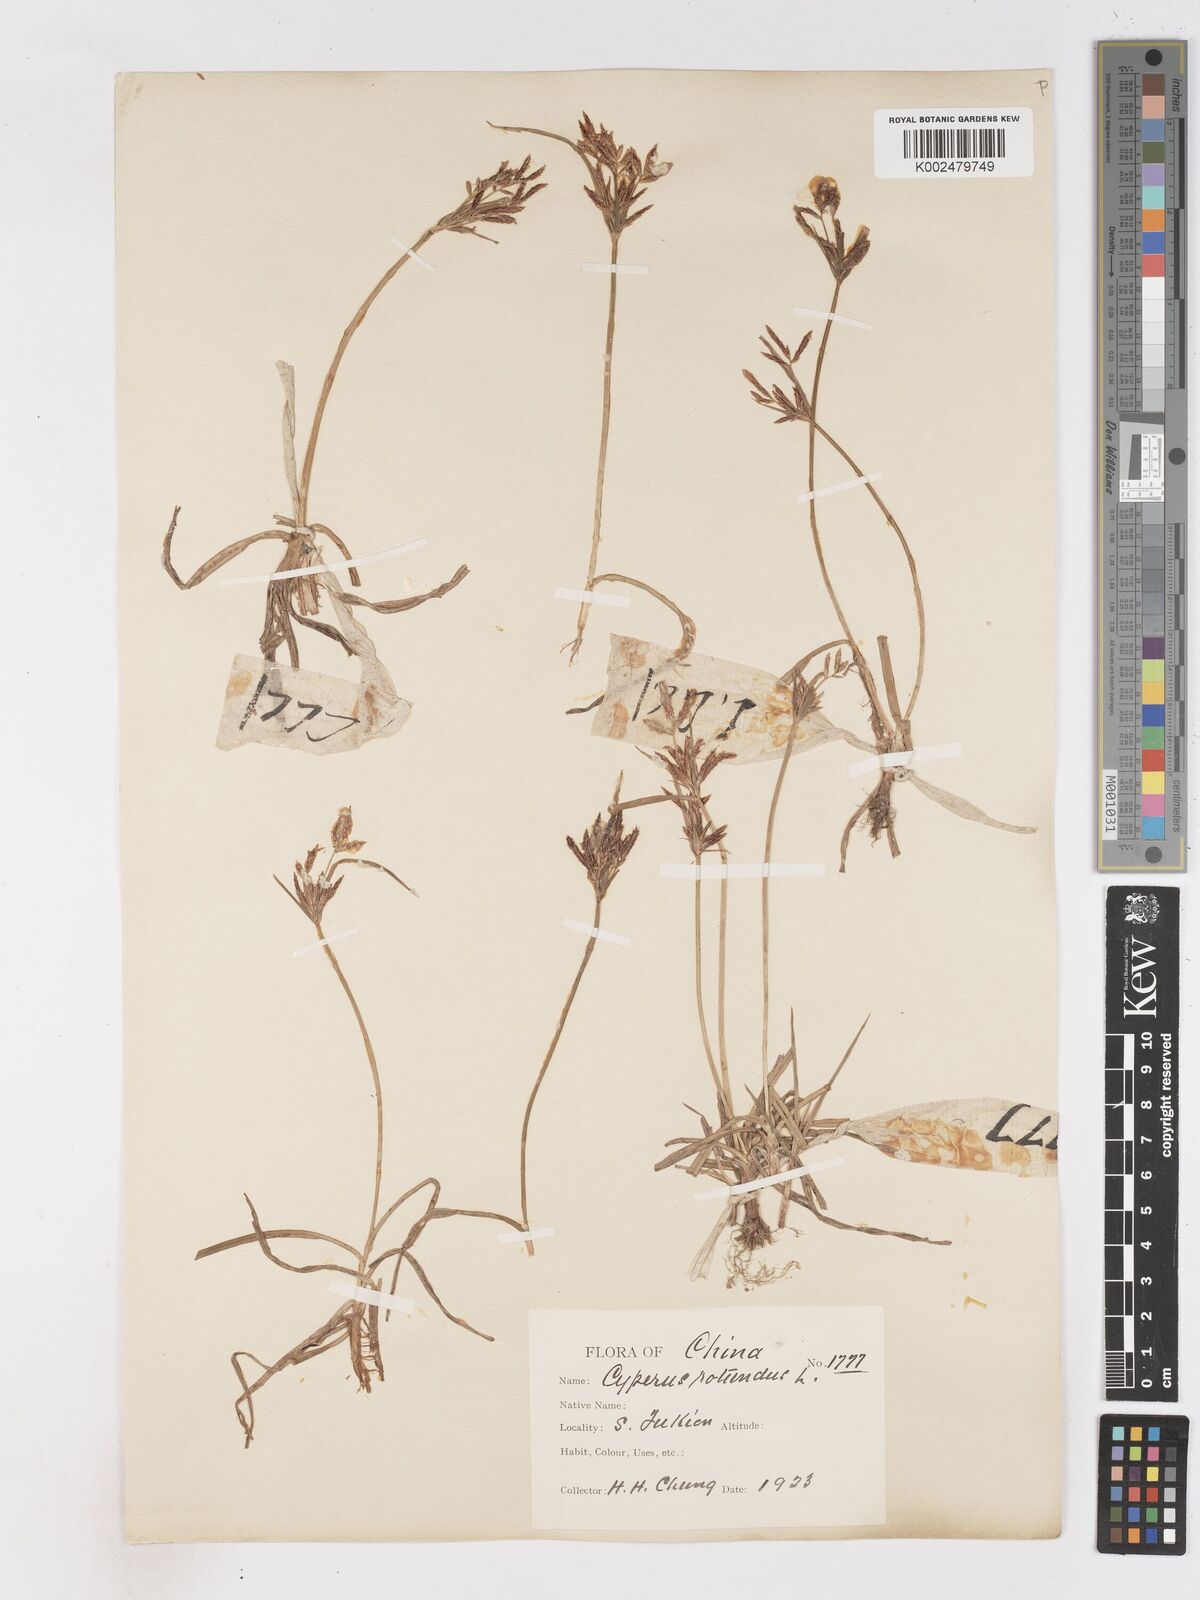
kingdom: Plantae
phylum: Tracheophyta
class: Liliopsida
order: Poales
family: Cyperaceae
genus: Cyperus
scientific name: Cyperus rotundus
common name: Nutgrass
